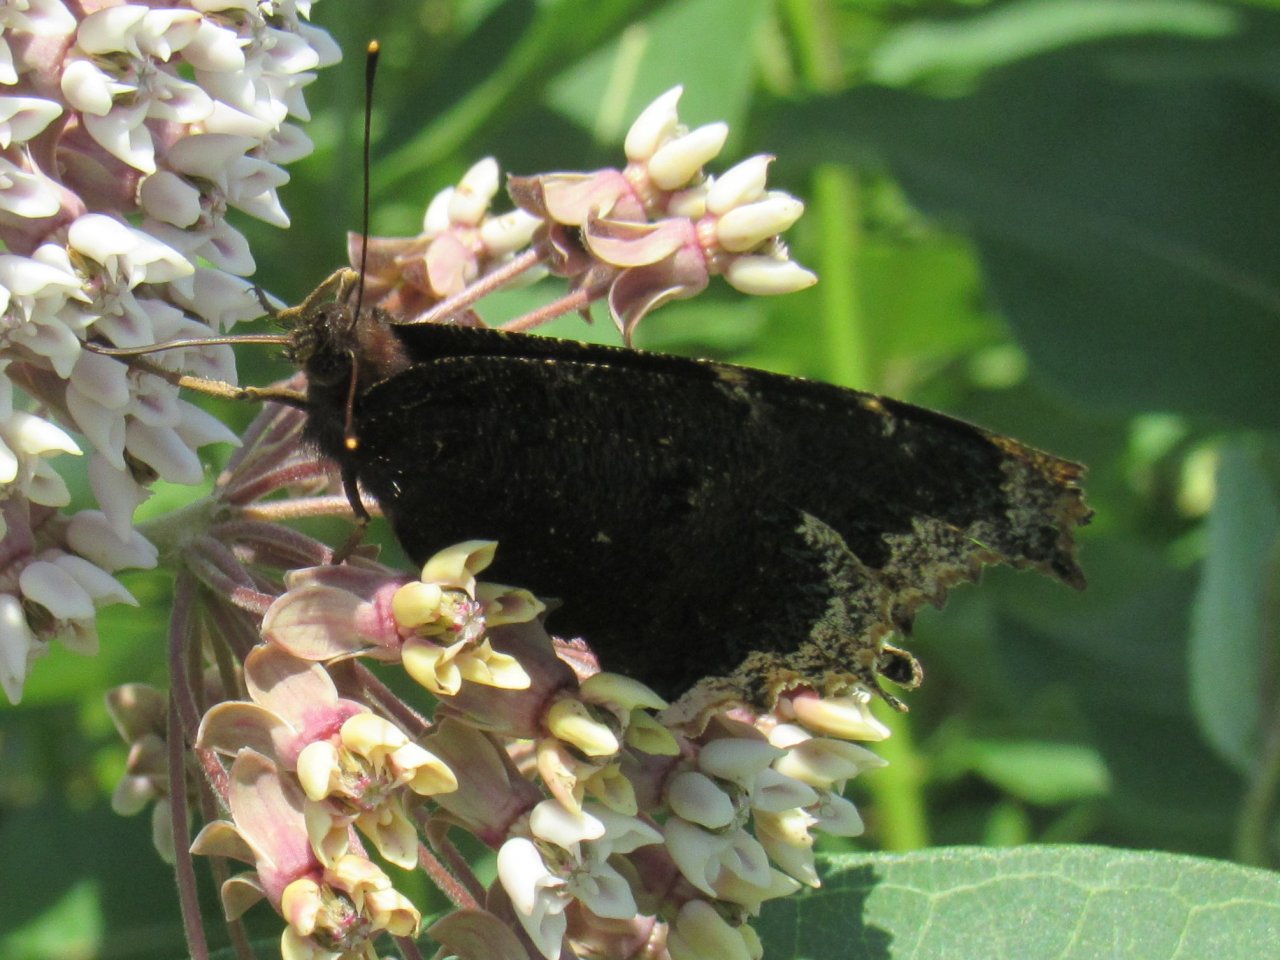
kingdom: Animalia
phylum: Arthropoda
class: Insecta
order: Lepidoptera
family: Nymphalidae
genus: Nymphalis
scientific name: Nymphalis antiopa
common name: Mourning Cloak
